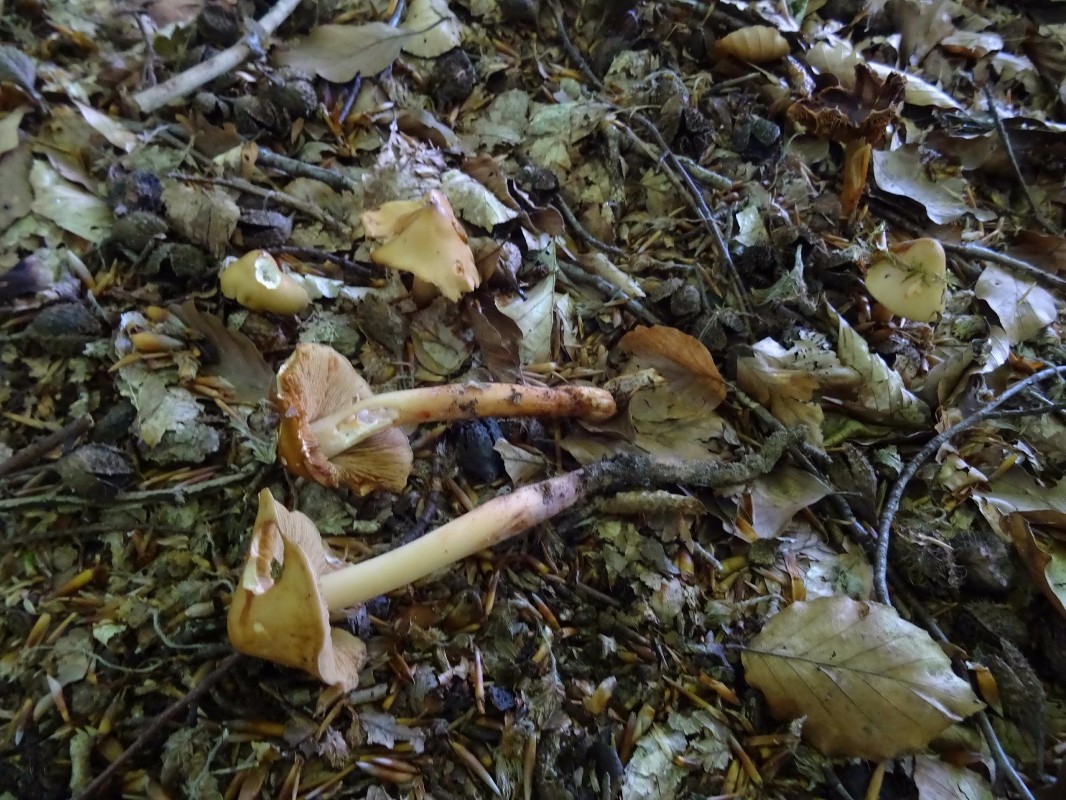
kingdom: Fungi
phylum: Basidiomycota
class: Agaricomycetes
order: Agaricales
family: Hymenogastraceae
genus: Phaeocollybia
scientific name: Phaeocollybia lugubris
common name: stor spidshat
